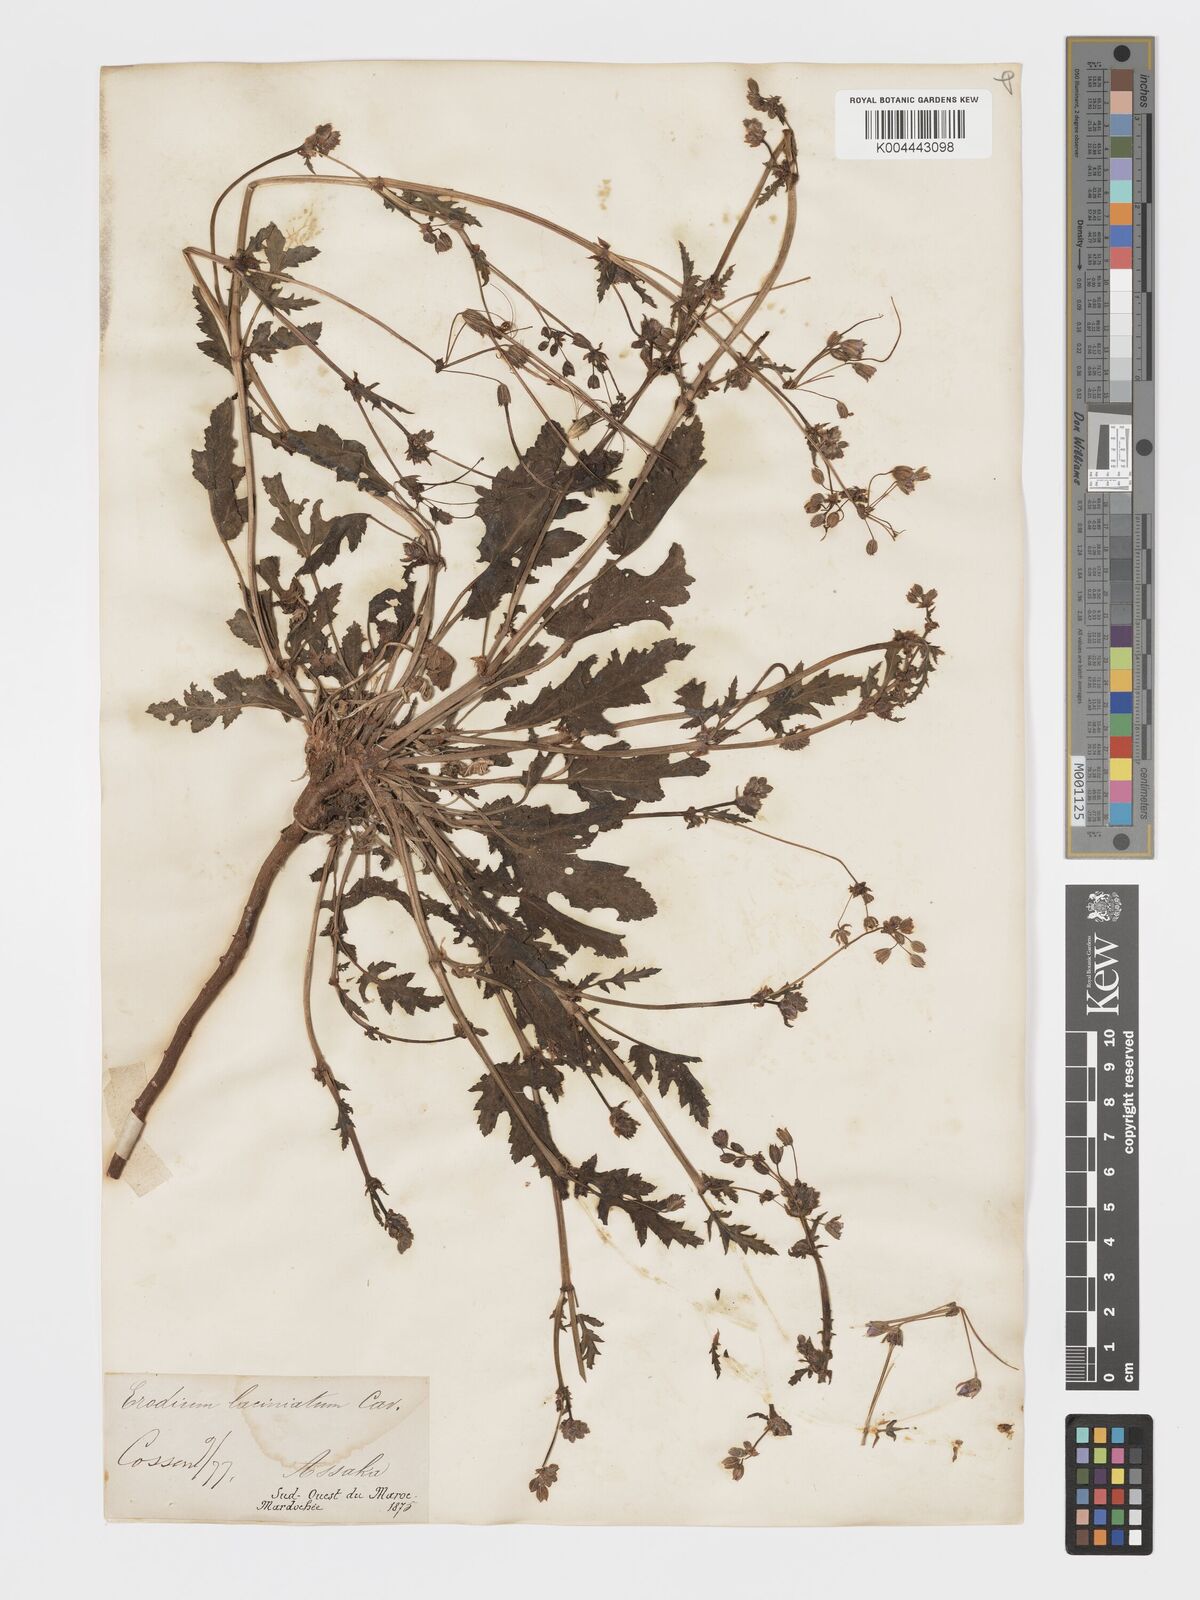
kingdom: Plantae
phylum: Tracheophyta
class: Magnoliopsida
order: Geraniales
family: Geraniaceae
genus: Erodium
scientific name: Erodium laciniatum
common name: Cutleaf stork's bill
